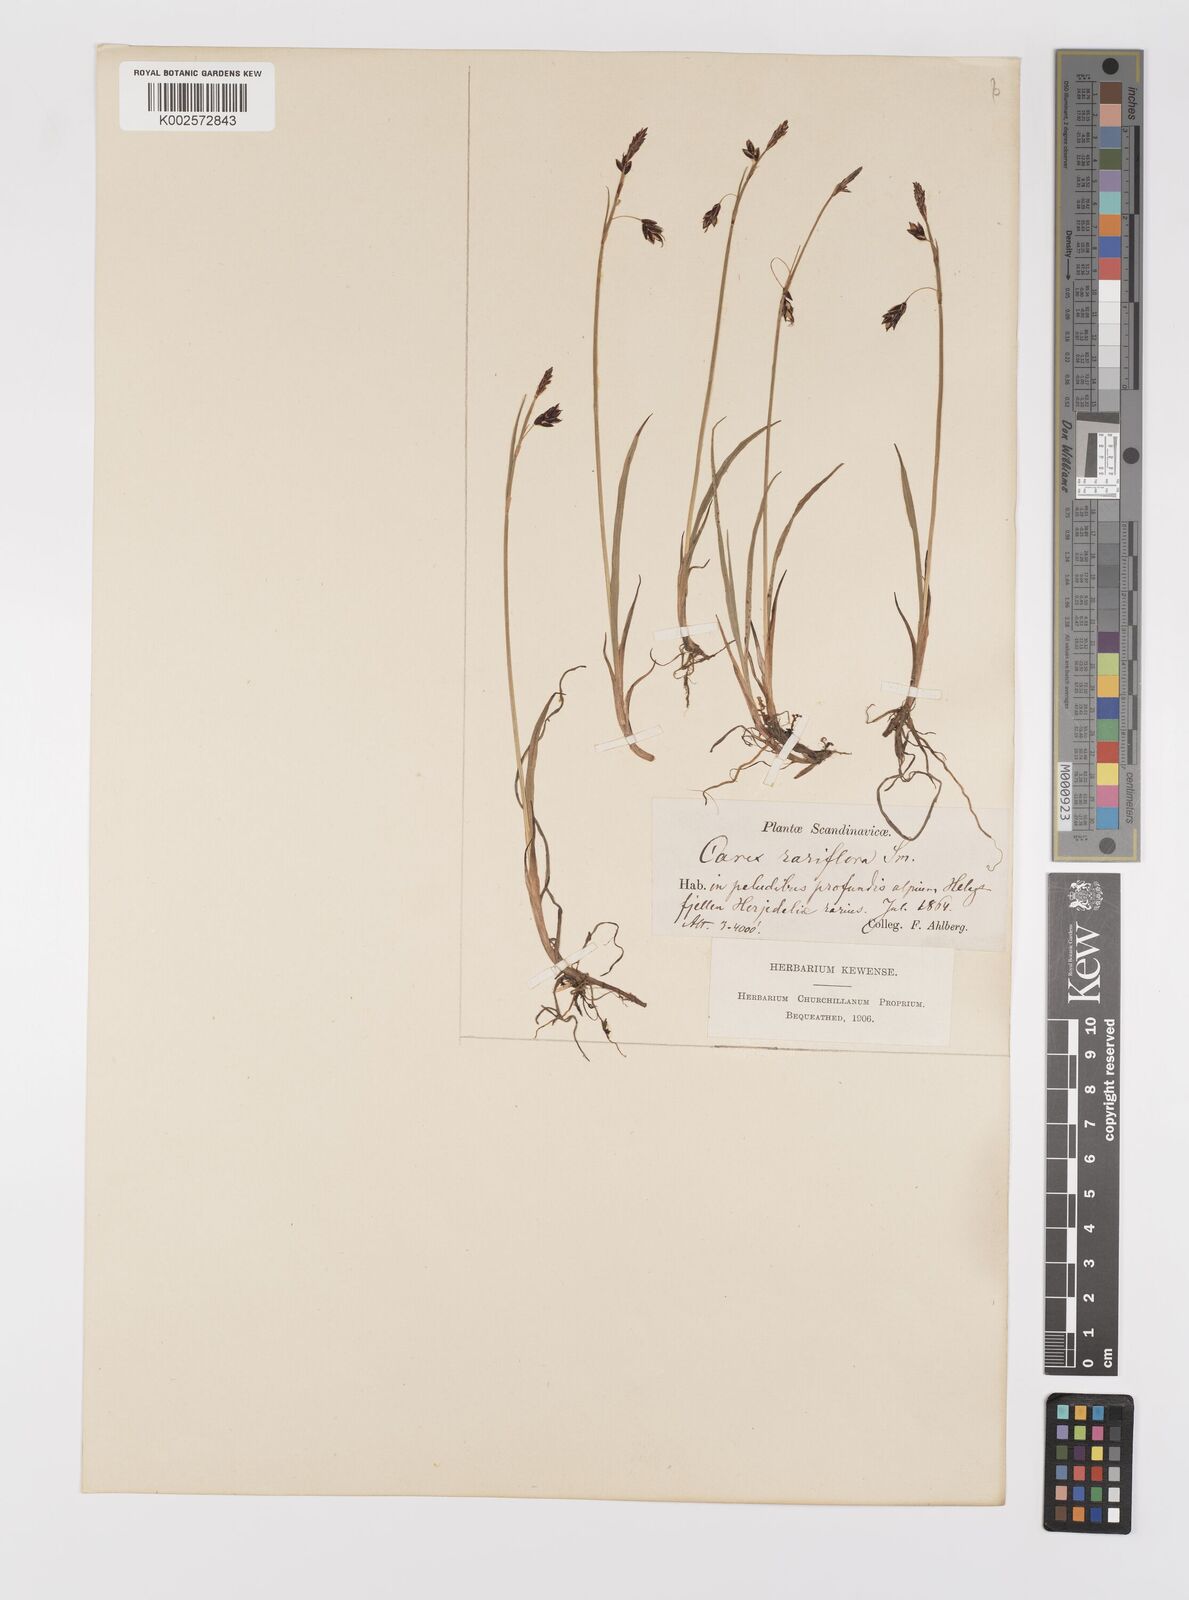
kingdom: Plantae
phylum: Tracheophyta
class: Liliopsida
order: Poales
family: Cyperaceae
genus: Carex
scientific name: Carex rariflora
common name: Loose-flowered alpine sedge
